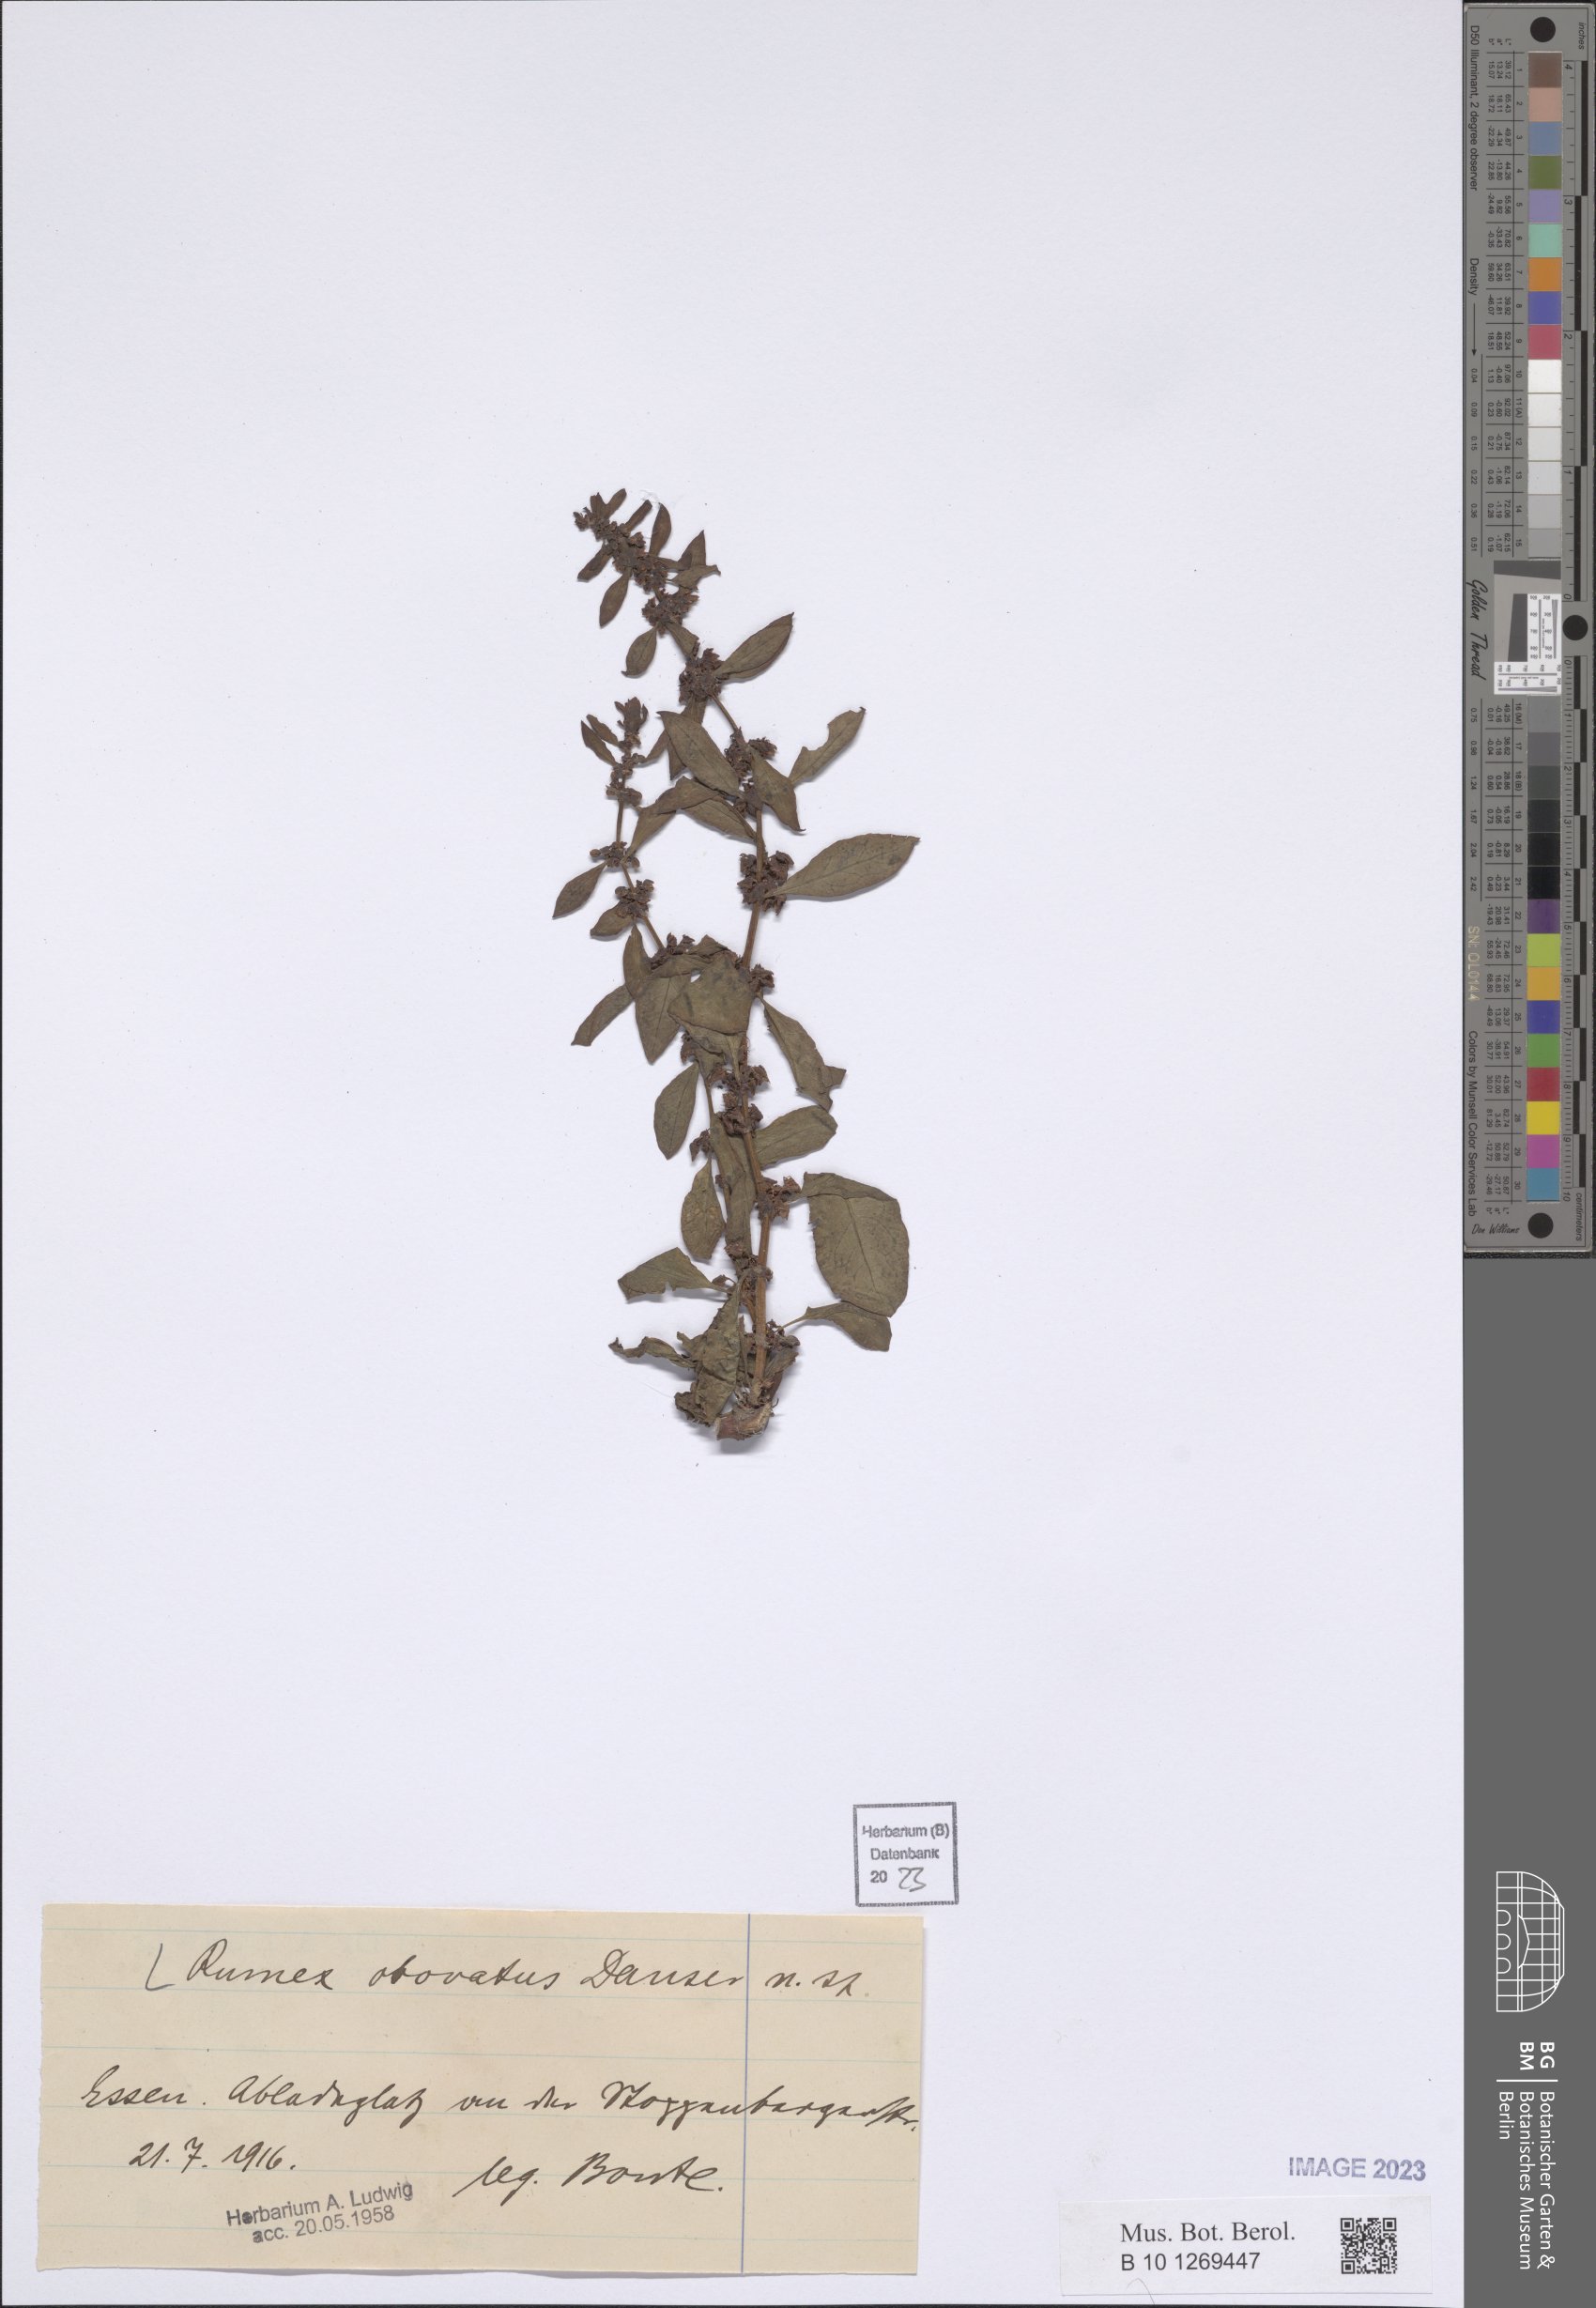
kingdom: Plantae
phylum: Tracheophyta
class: Magnoliopsida
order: Caryophyllales
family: Polygonaceae
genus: Rumex
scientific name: Rumex obovatus
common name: Obovate-leaved dock
